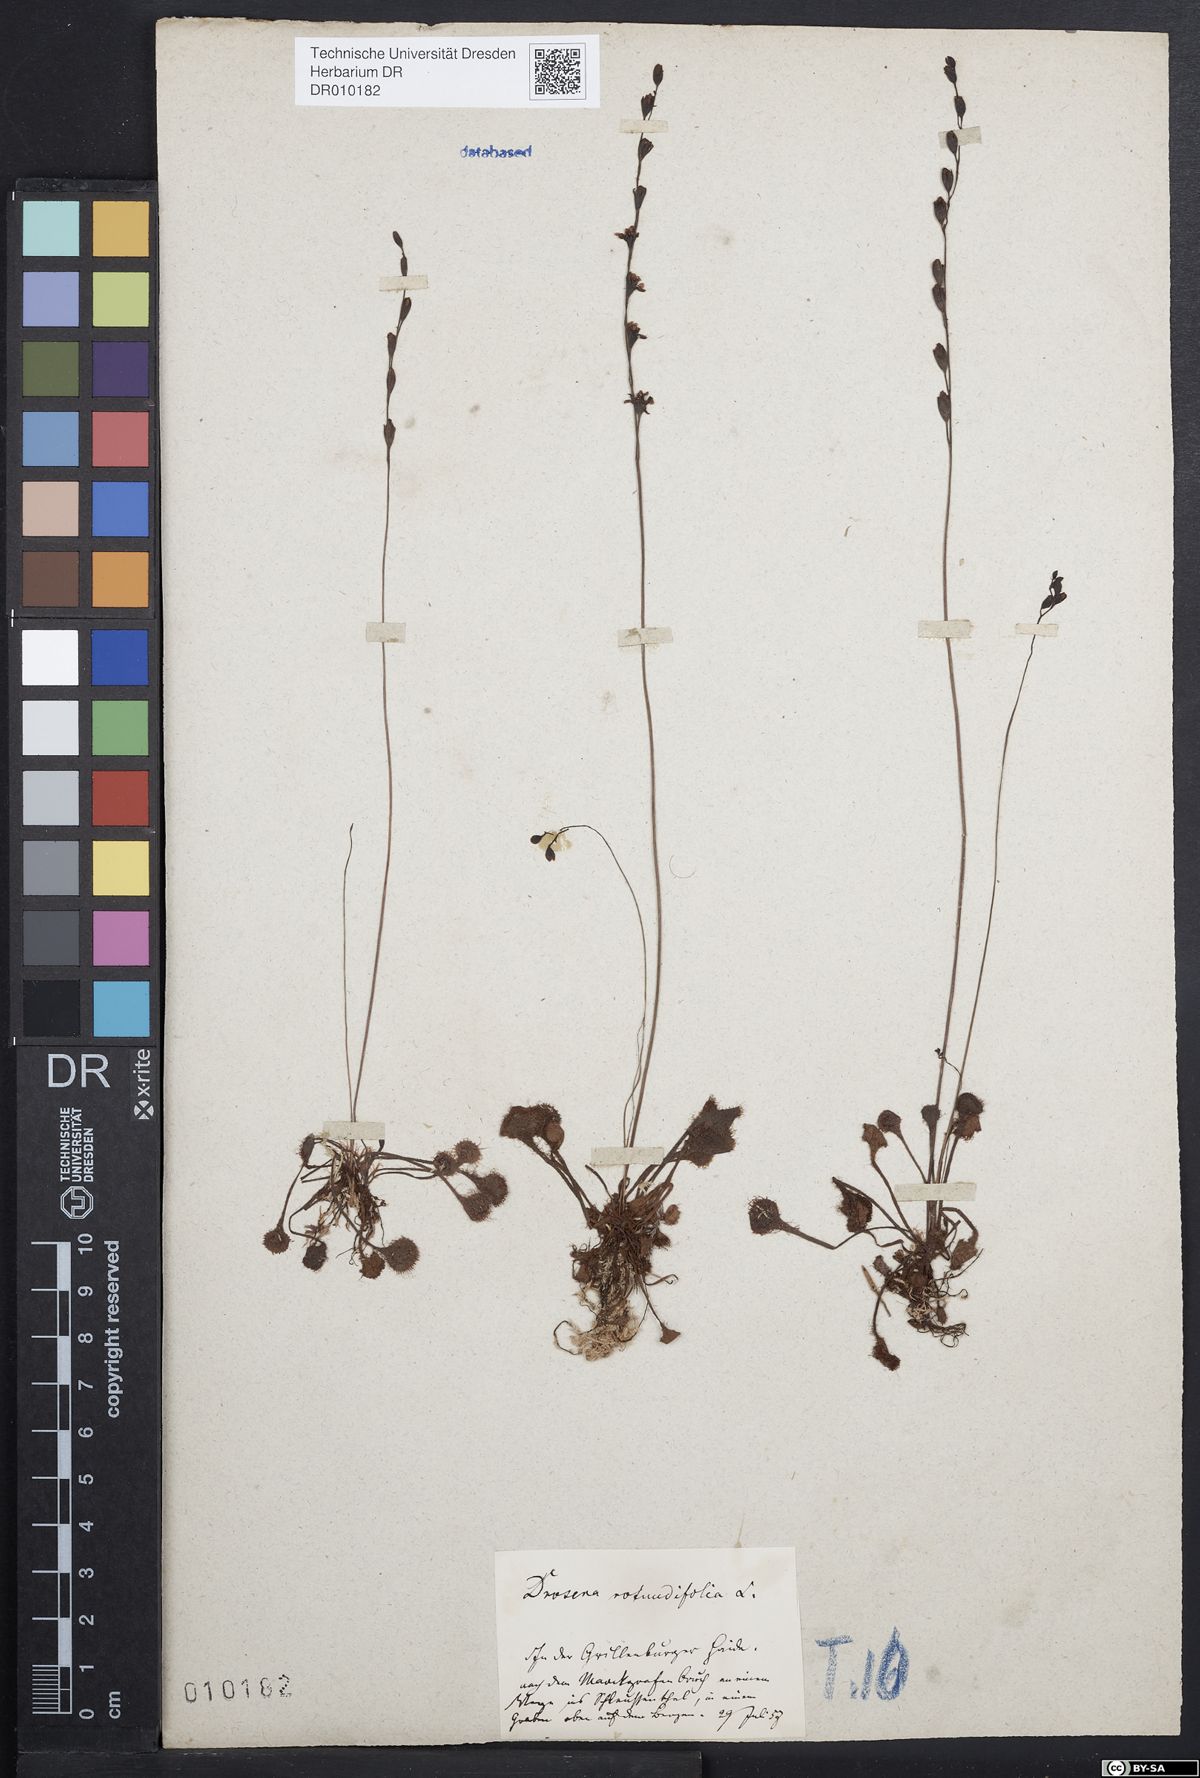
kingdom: Plantae
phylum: Tracheophyta
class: Magnoliopsida
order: Caryophyllales
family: Droseraceae
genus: Drosera
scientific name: Drosera rotundifolia
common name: Round-leaved sundew
